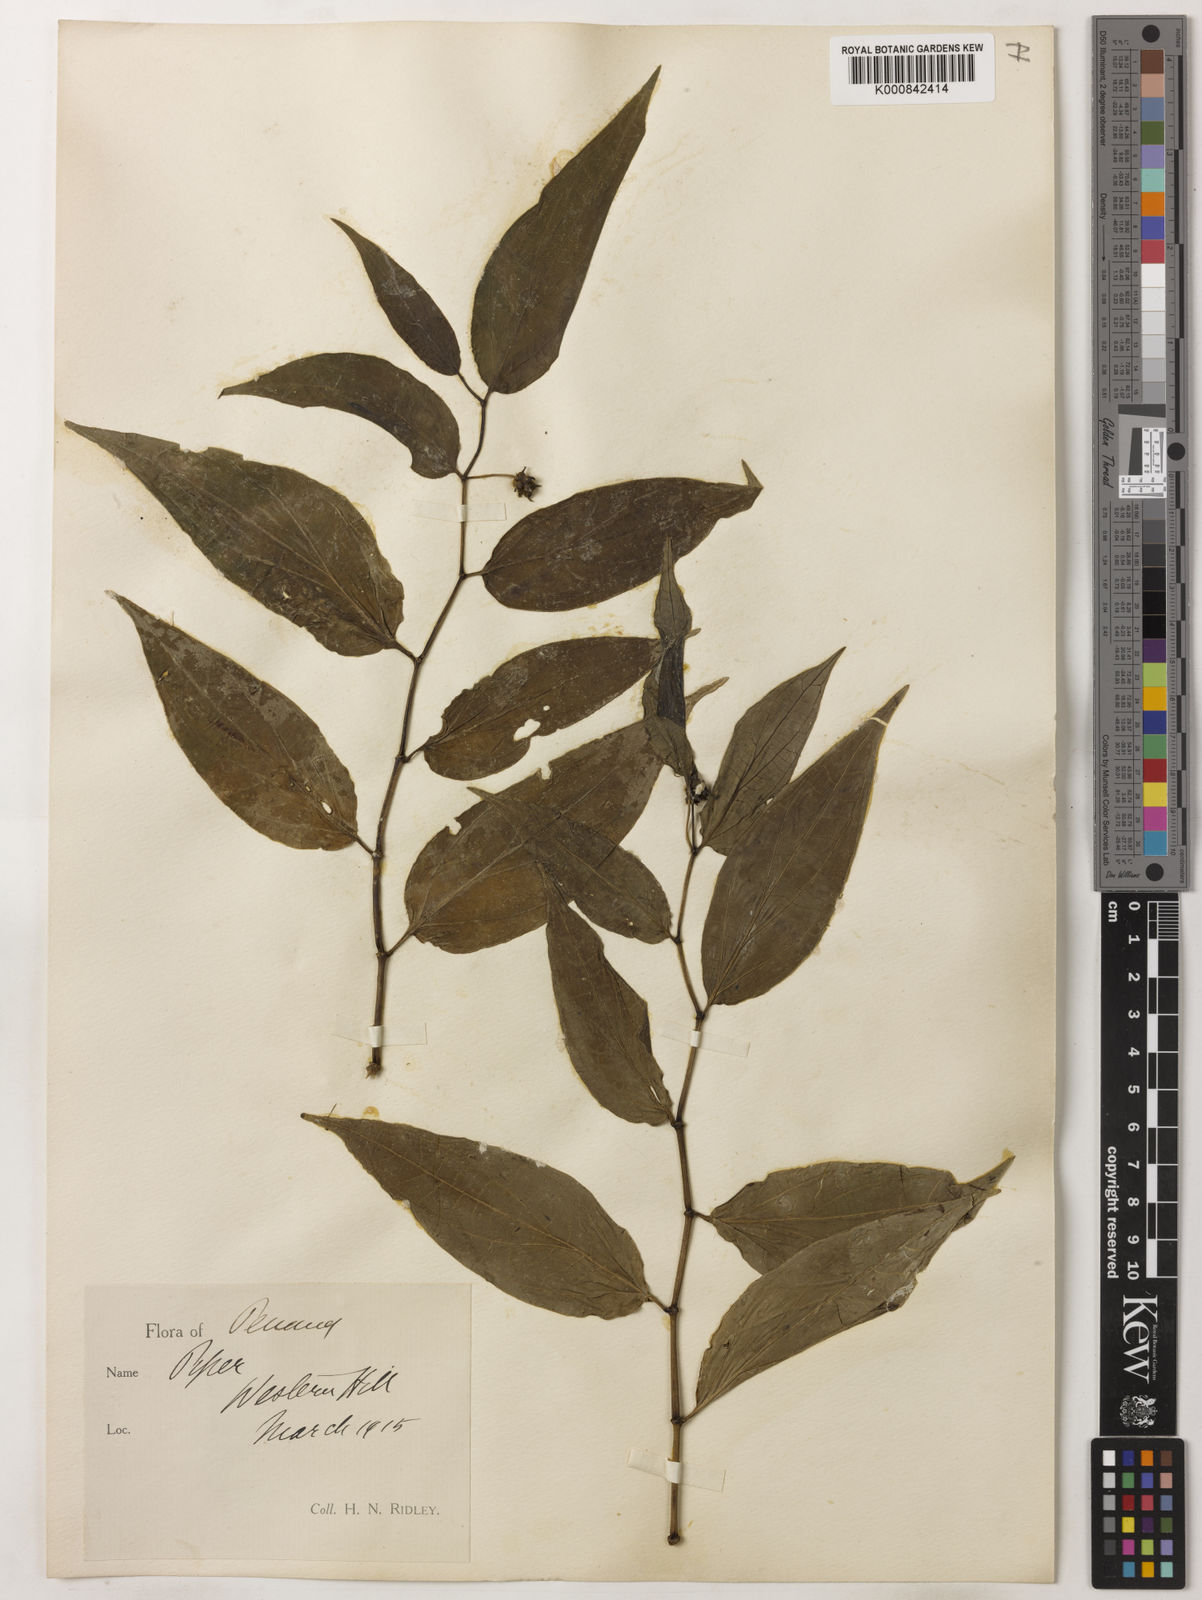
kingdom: Plantae
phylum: Tracheophyta
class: Magnoliopsida
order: Piperales
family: Piperaceae
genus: Piper
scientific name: Piper penangense
